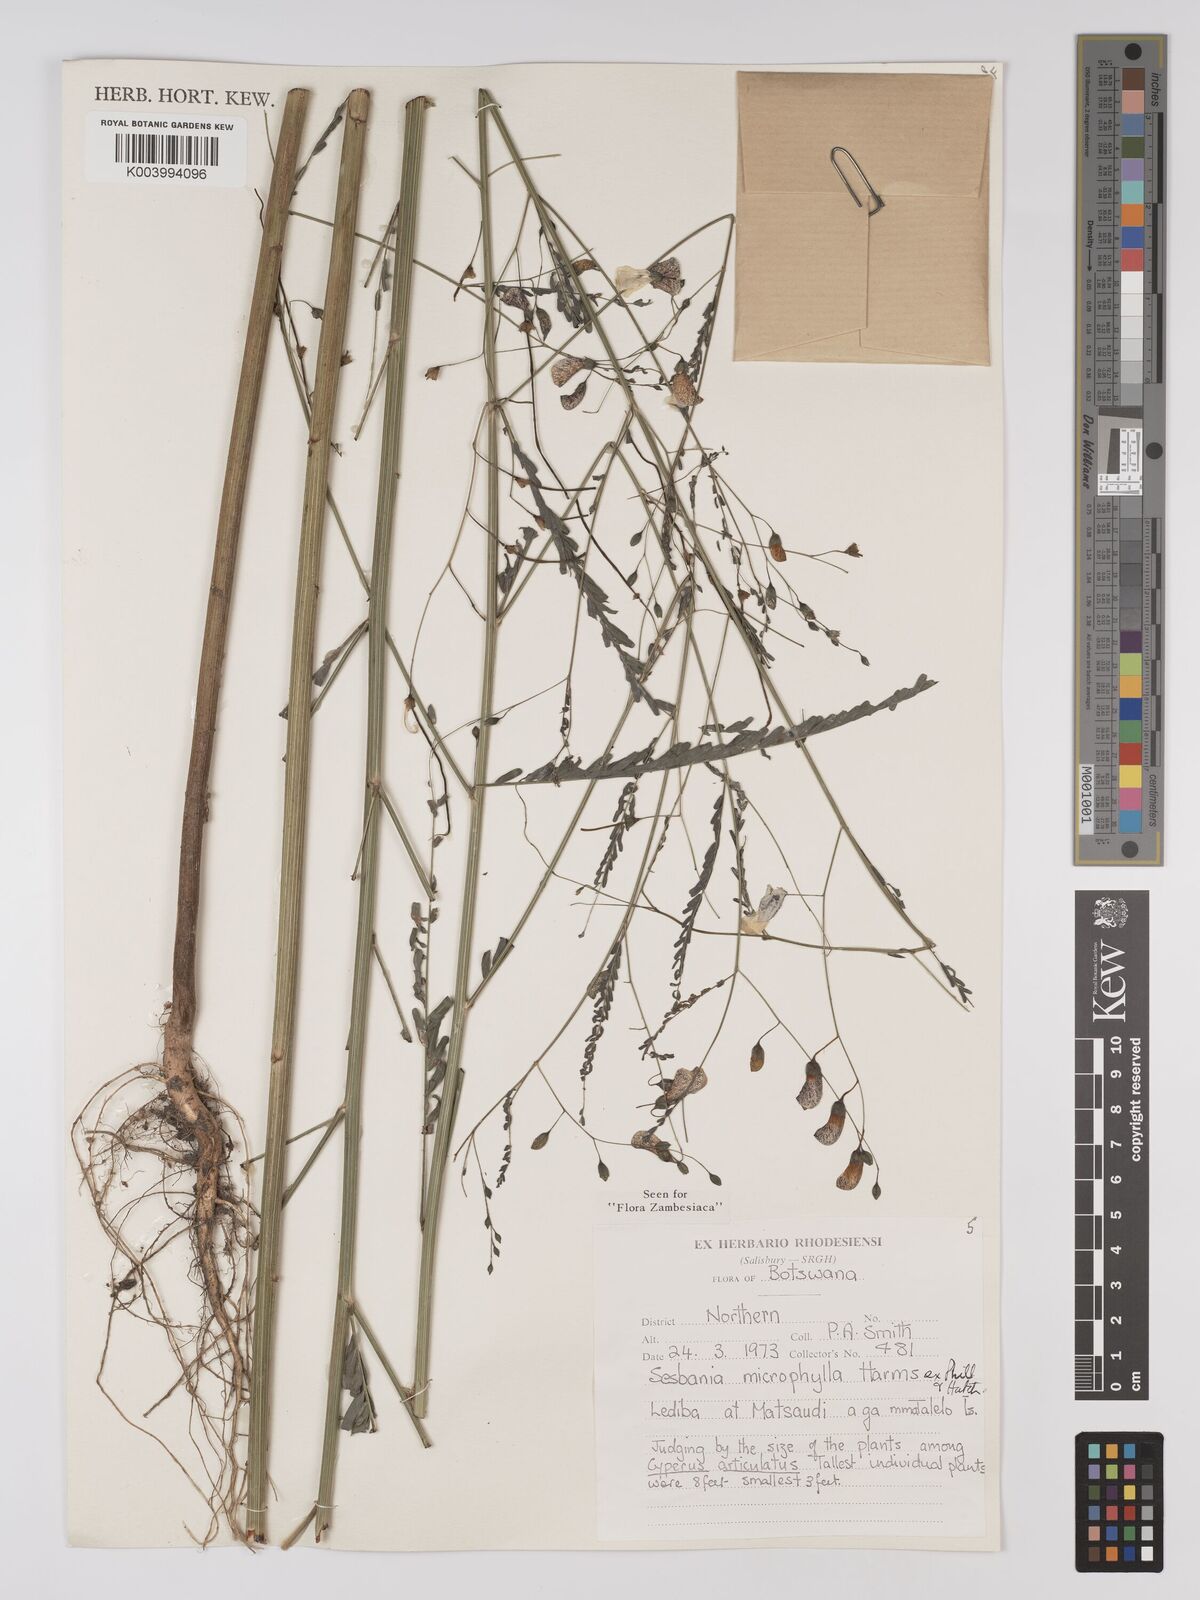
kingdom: Plantae
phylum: Tracheophyta
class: Magnoliopsida
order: Fabales
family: Fabaceae
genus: Sesbania
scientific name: Sesbania microphylla
